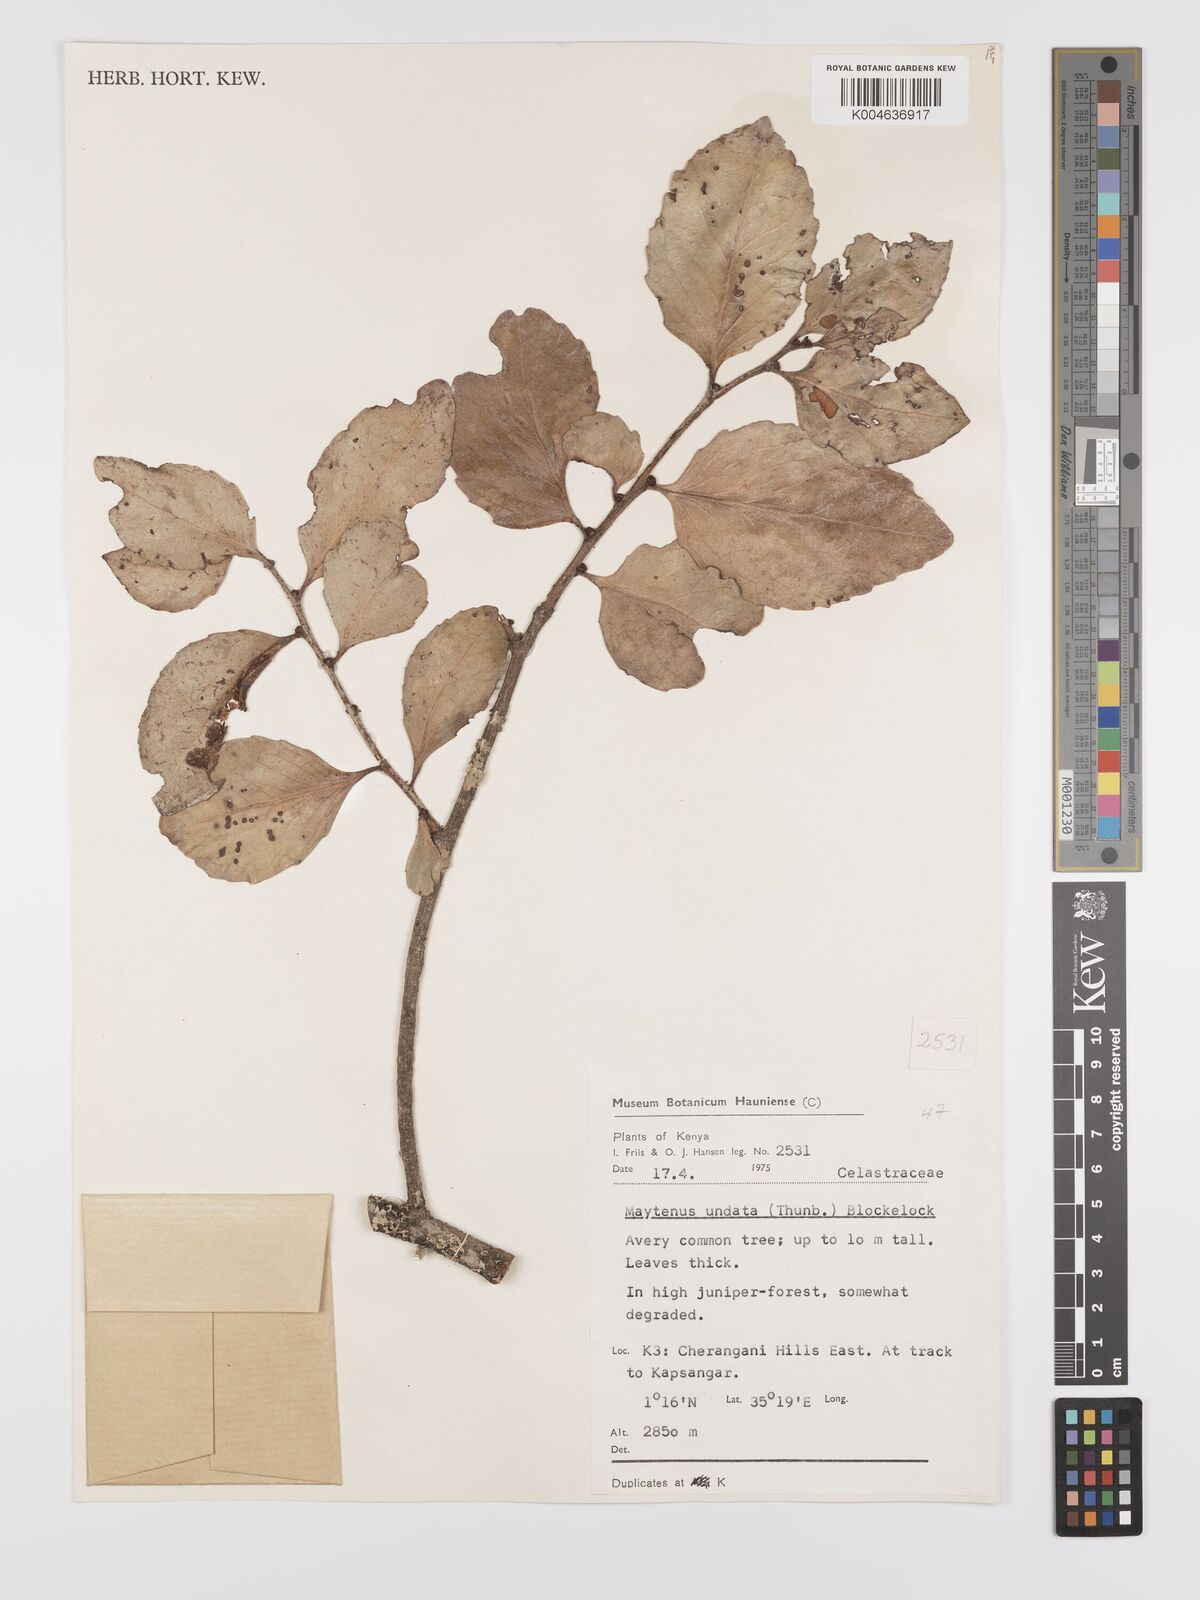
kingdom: Plantae
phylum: Tracheophyta
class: Magnoliopsida
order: Celastrales
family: Celastraceae
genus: Gymnosporia
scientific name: Gymnosporia undata
